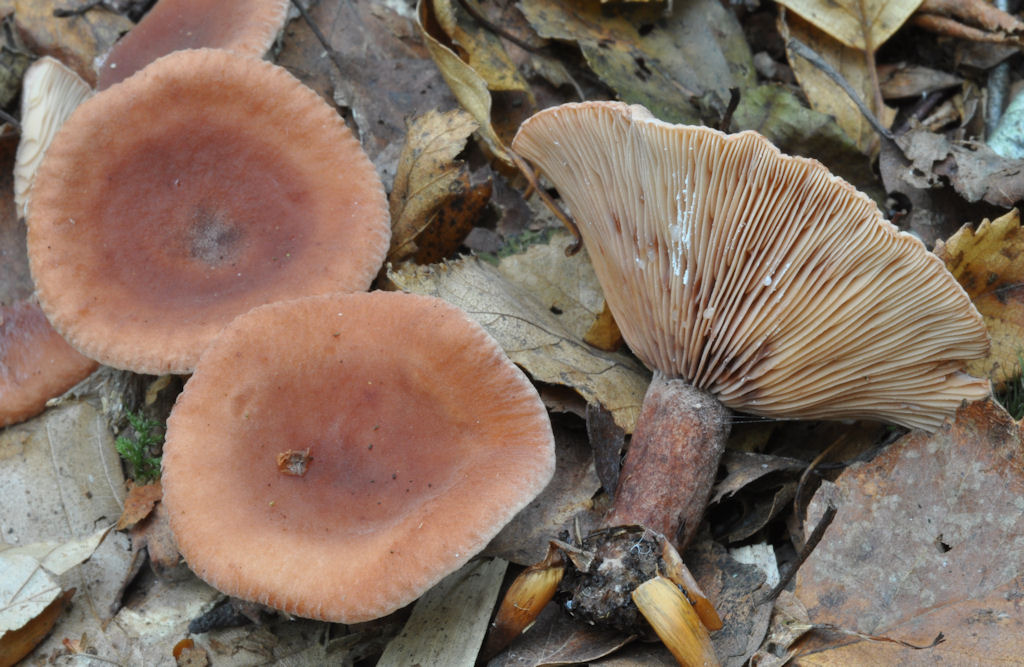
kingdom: Fungi
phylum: Basidiomycota
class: Agaricomycetes
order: Russulales
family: Russulaceae
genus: Lactarius
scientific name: Lactarius camphoratus
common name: kamfer-mælkehat
